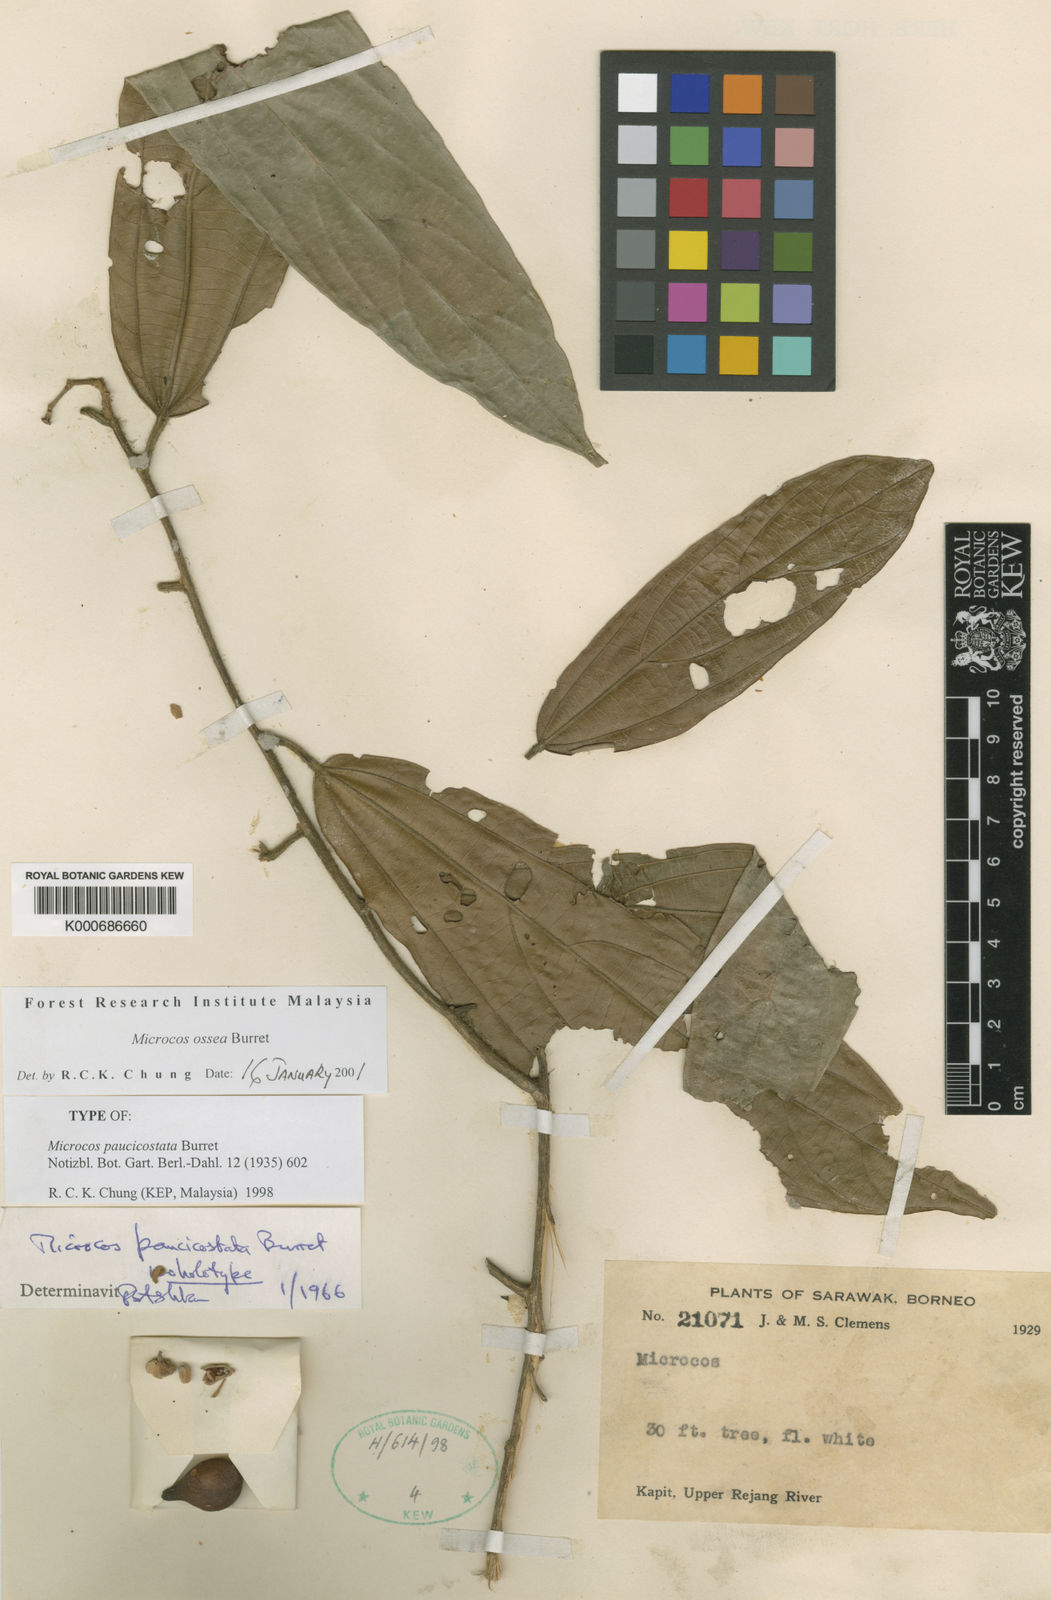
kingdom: Plantae
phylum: Tracheophyta
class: Magnoliopsida
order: Malvales
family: Malvaceae
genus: Microcos
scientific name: Microcos ossea
